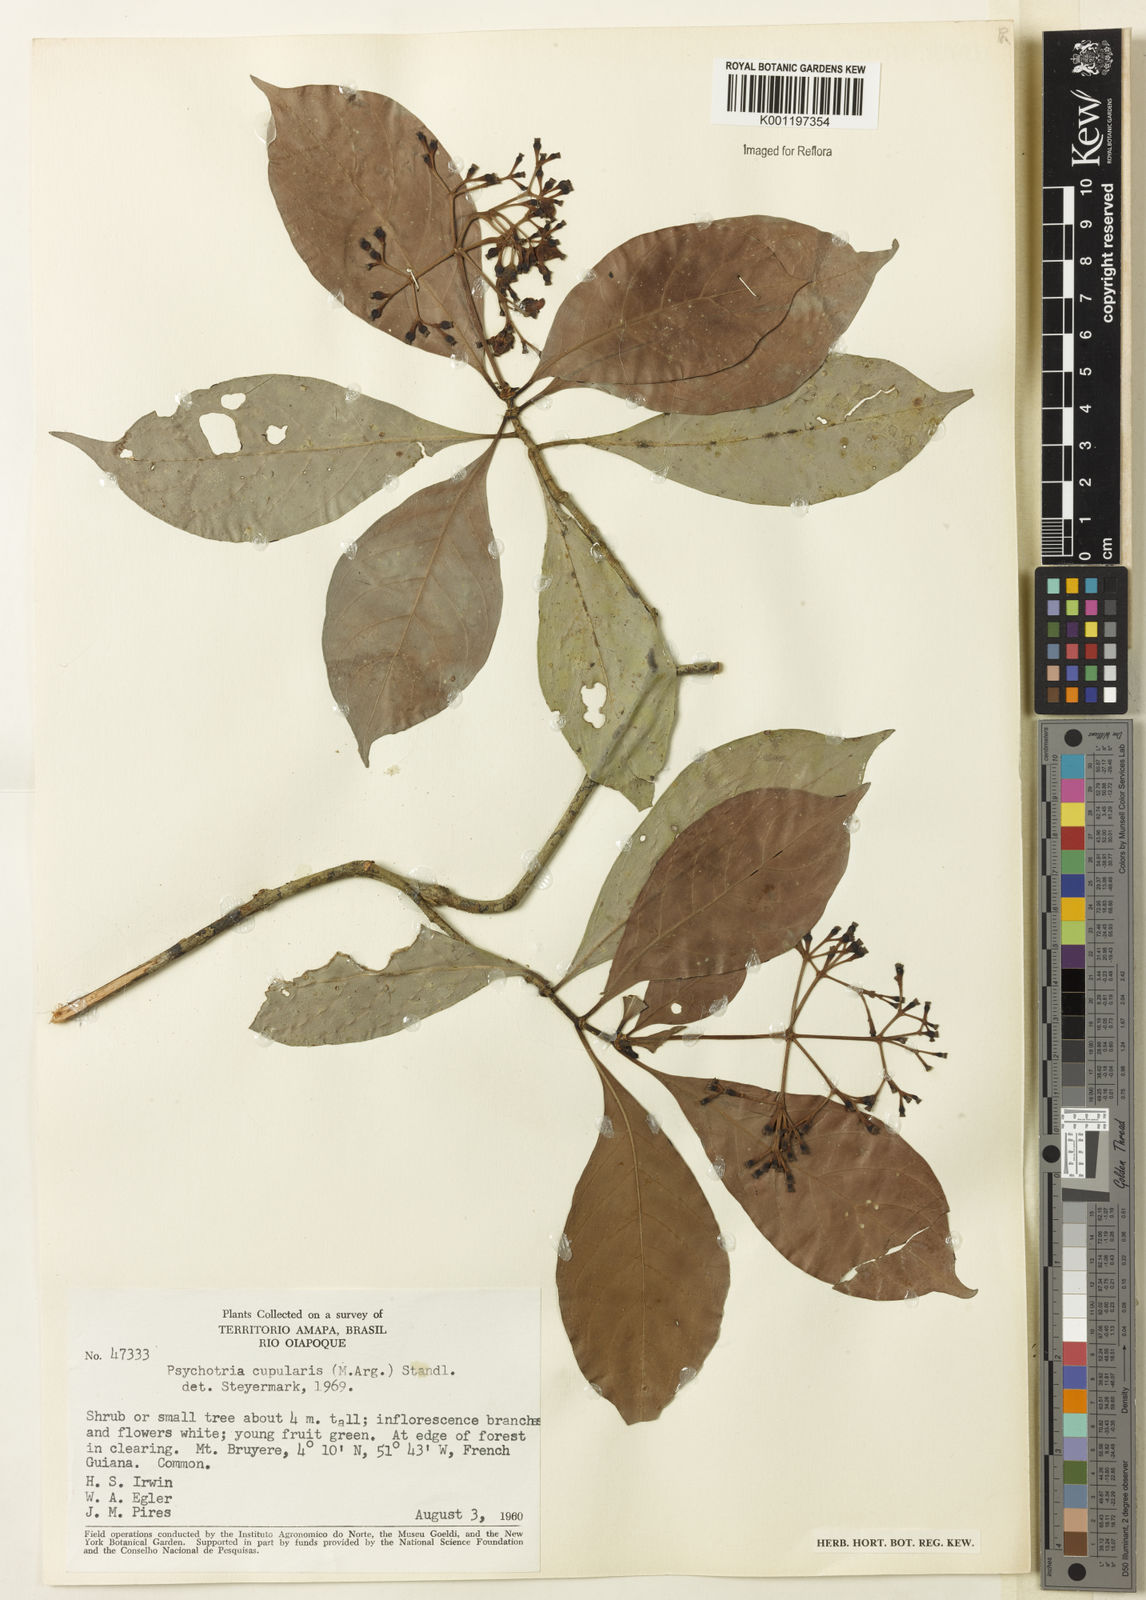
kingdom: Plantae
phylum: Tracheophyta
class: Magnoliopsida
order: Gentianales
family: Rubiaceae
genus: Psychotria
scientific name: Psychotria
